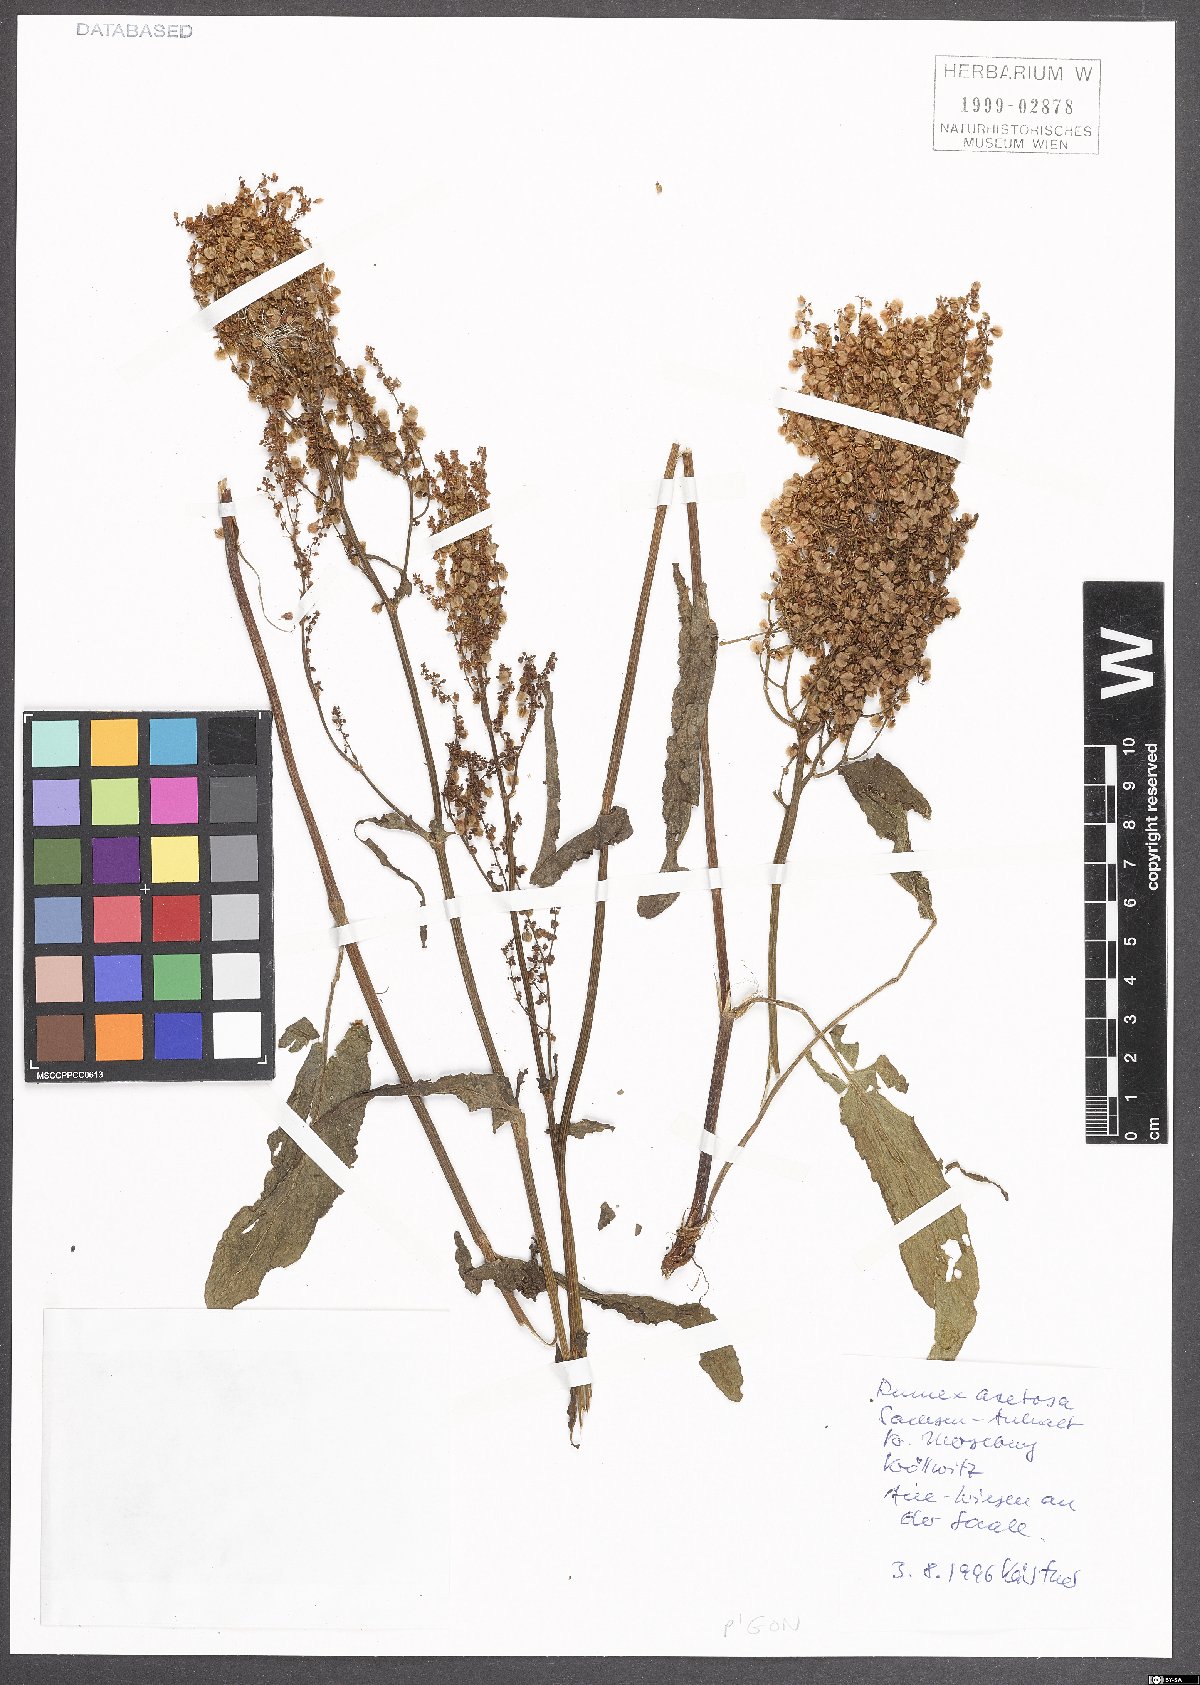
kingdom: Plantae
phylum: Tracheophyta
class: Magnoliopsida
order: Caryophyllales
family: Polygonaceae
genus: Rumex
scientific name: Rumex acetosa
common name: Garden sorrel
